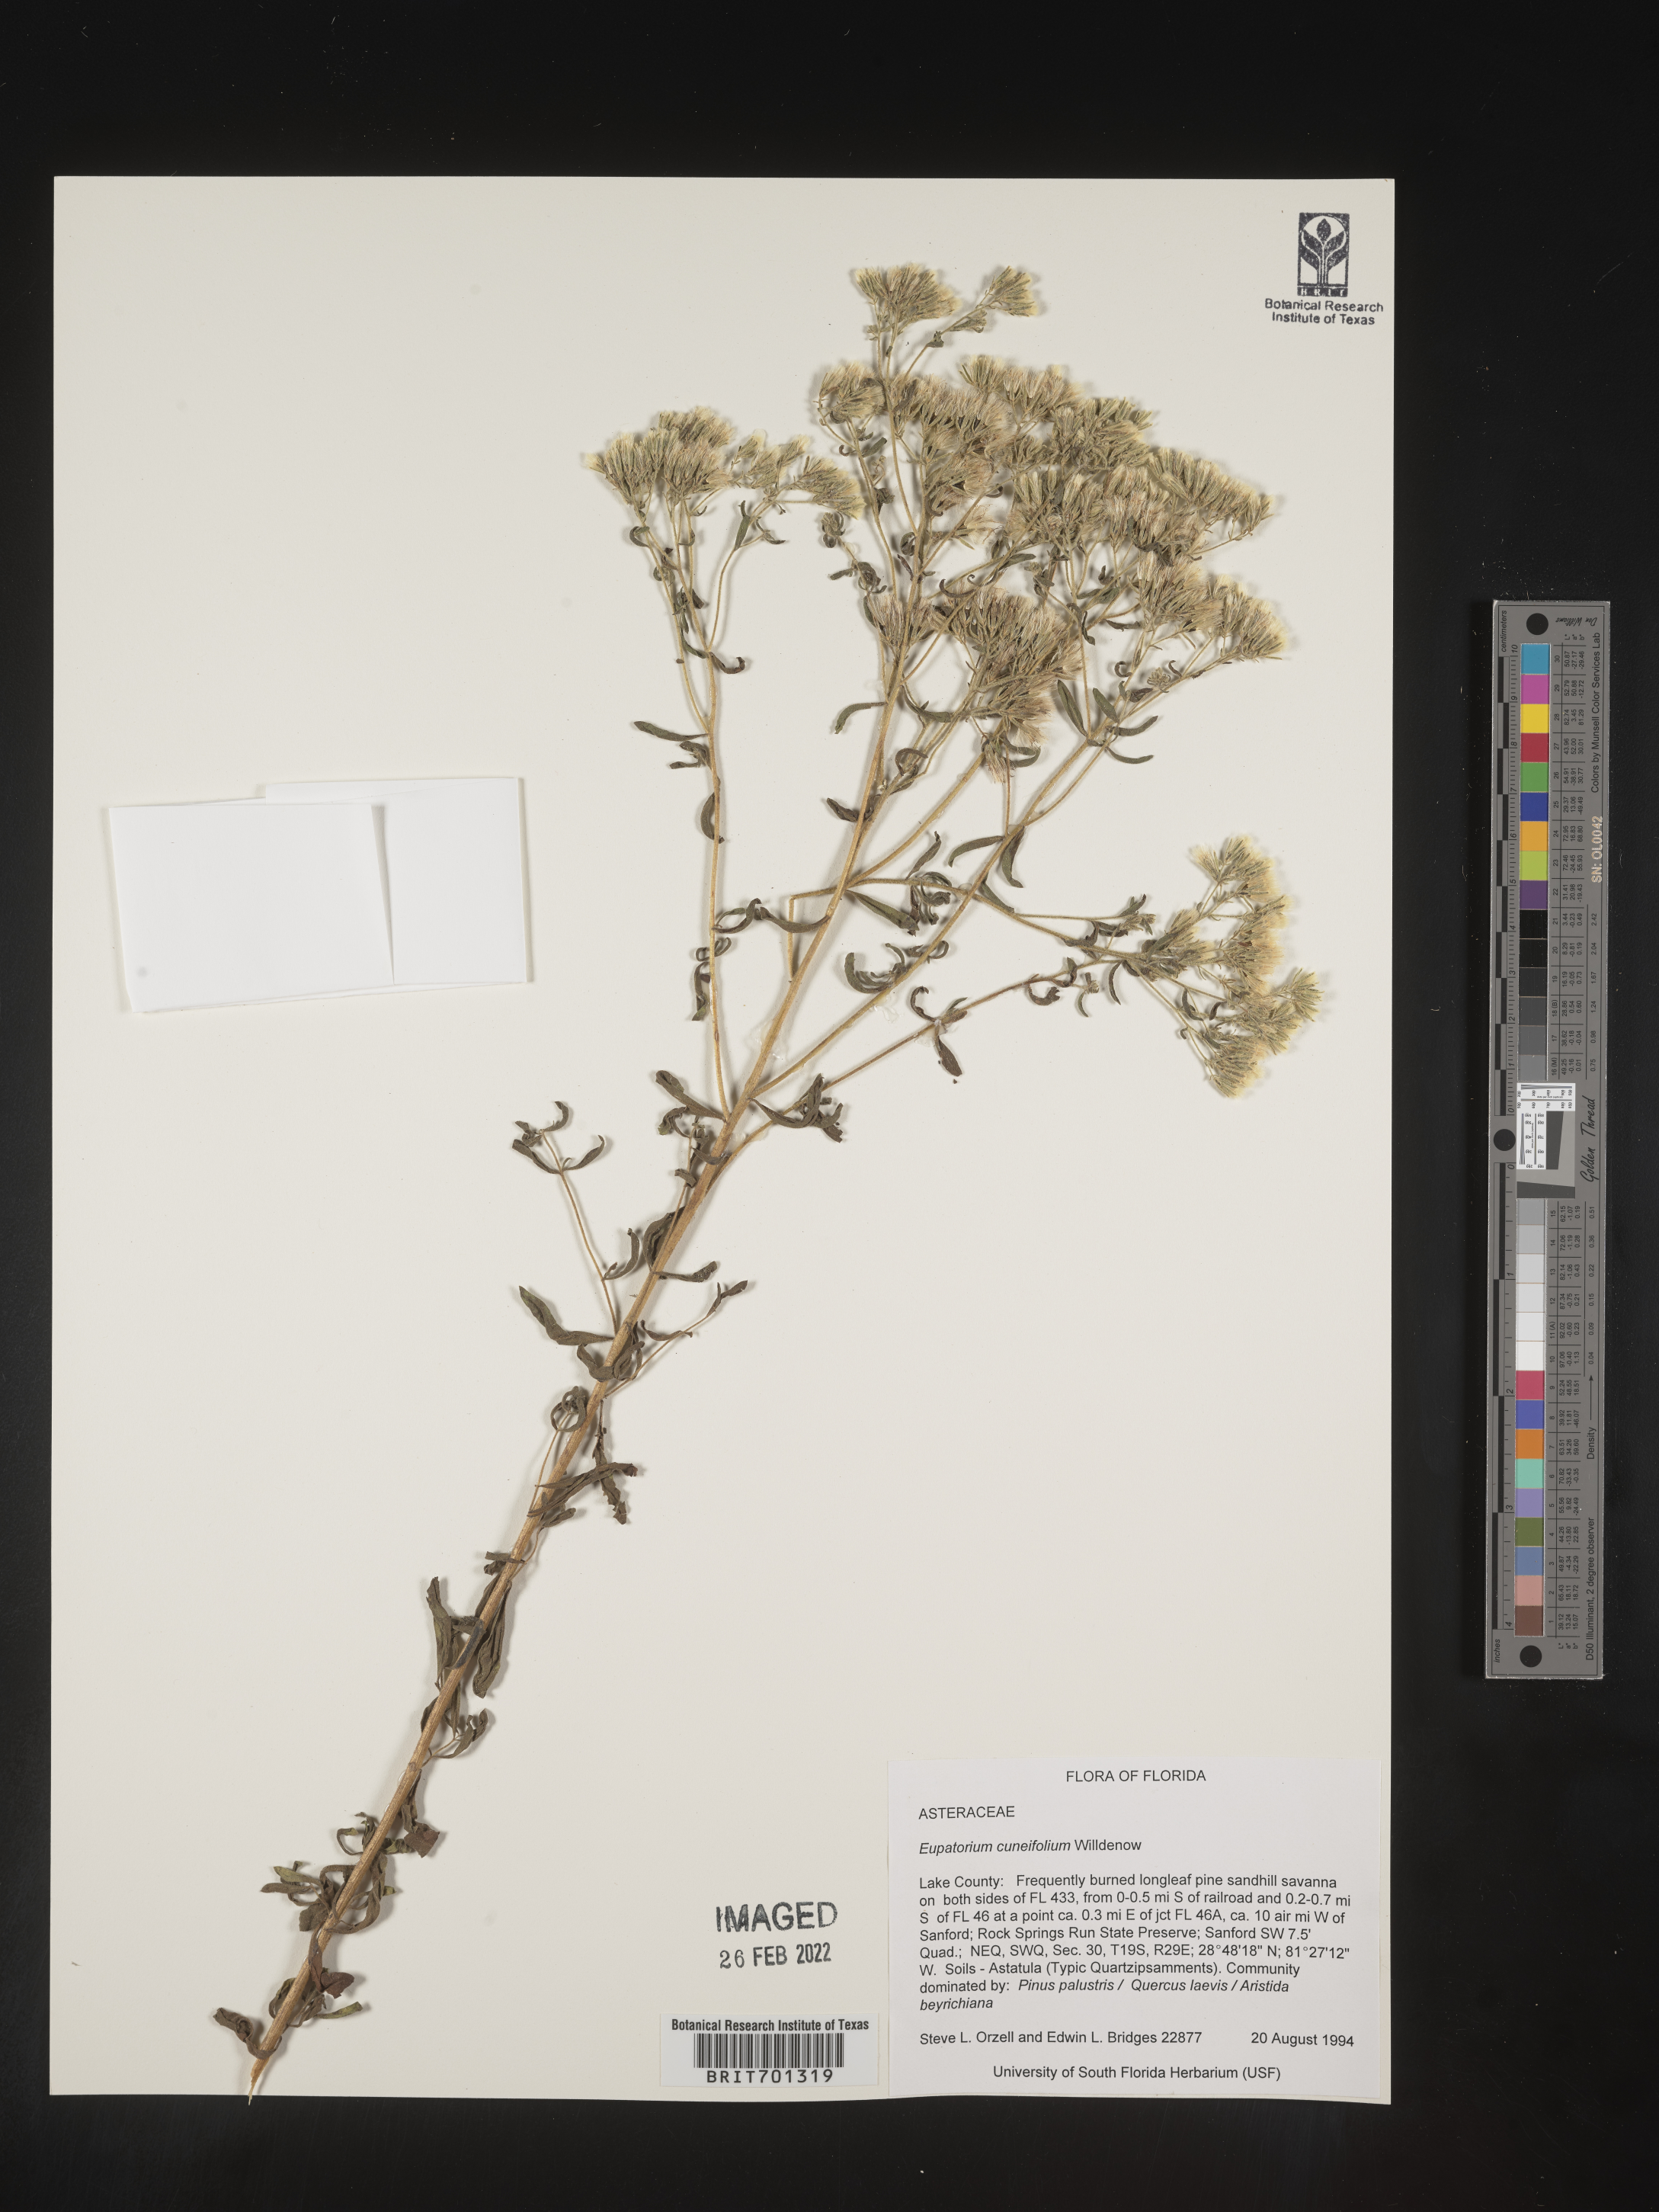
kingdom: Plantae
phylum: Tracheophyta
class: Magnoliopsida
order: Asterales
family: Asteraceae
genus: Eupatorium
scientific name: Eupatorium linearifolium
